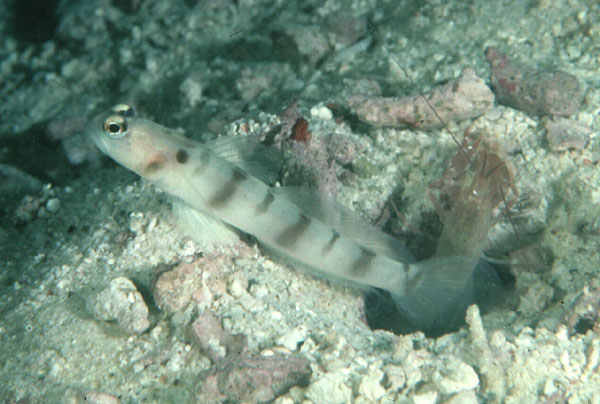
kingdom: Animalia
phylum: Chordata
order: Perciformes
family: Gobiidae
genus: Amblyeleotris
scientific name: Amblyeleotris downingi
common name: Downing's shrimpgoby
